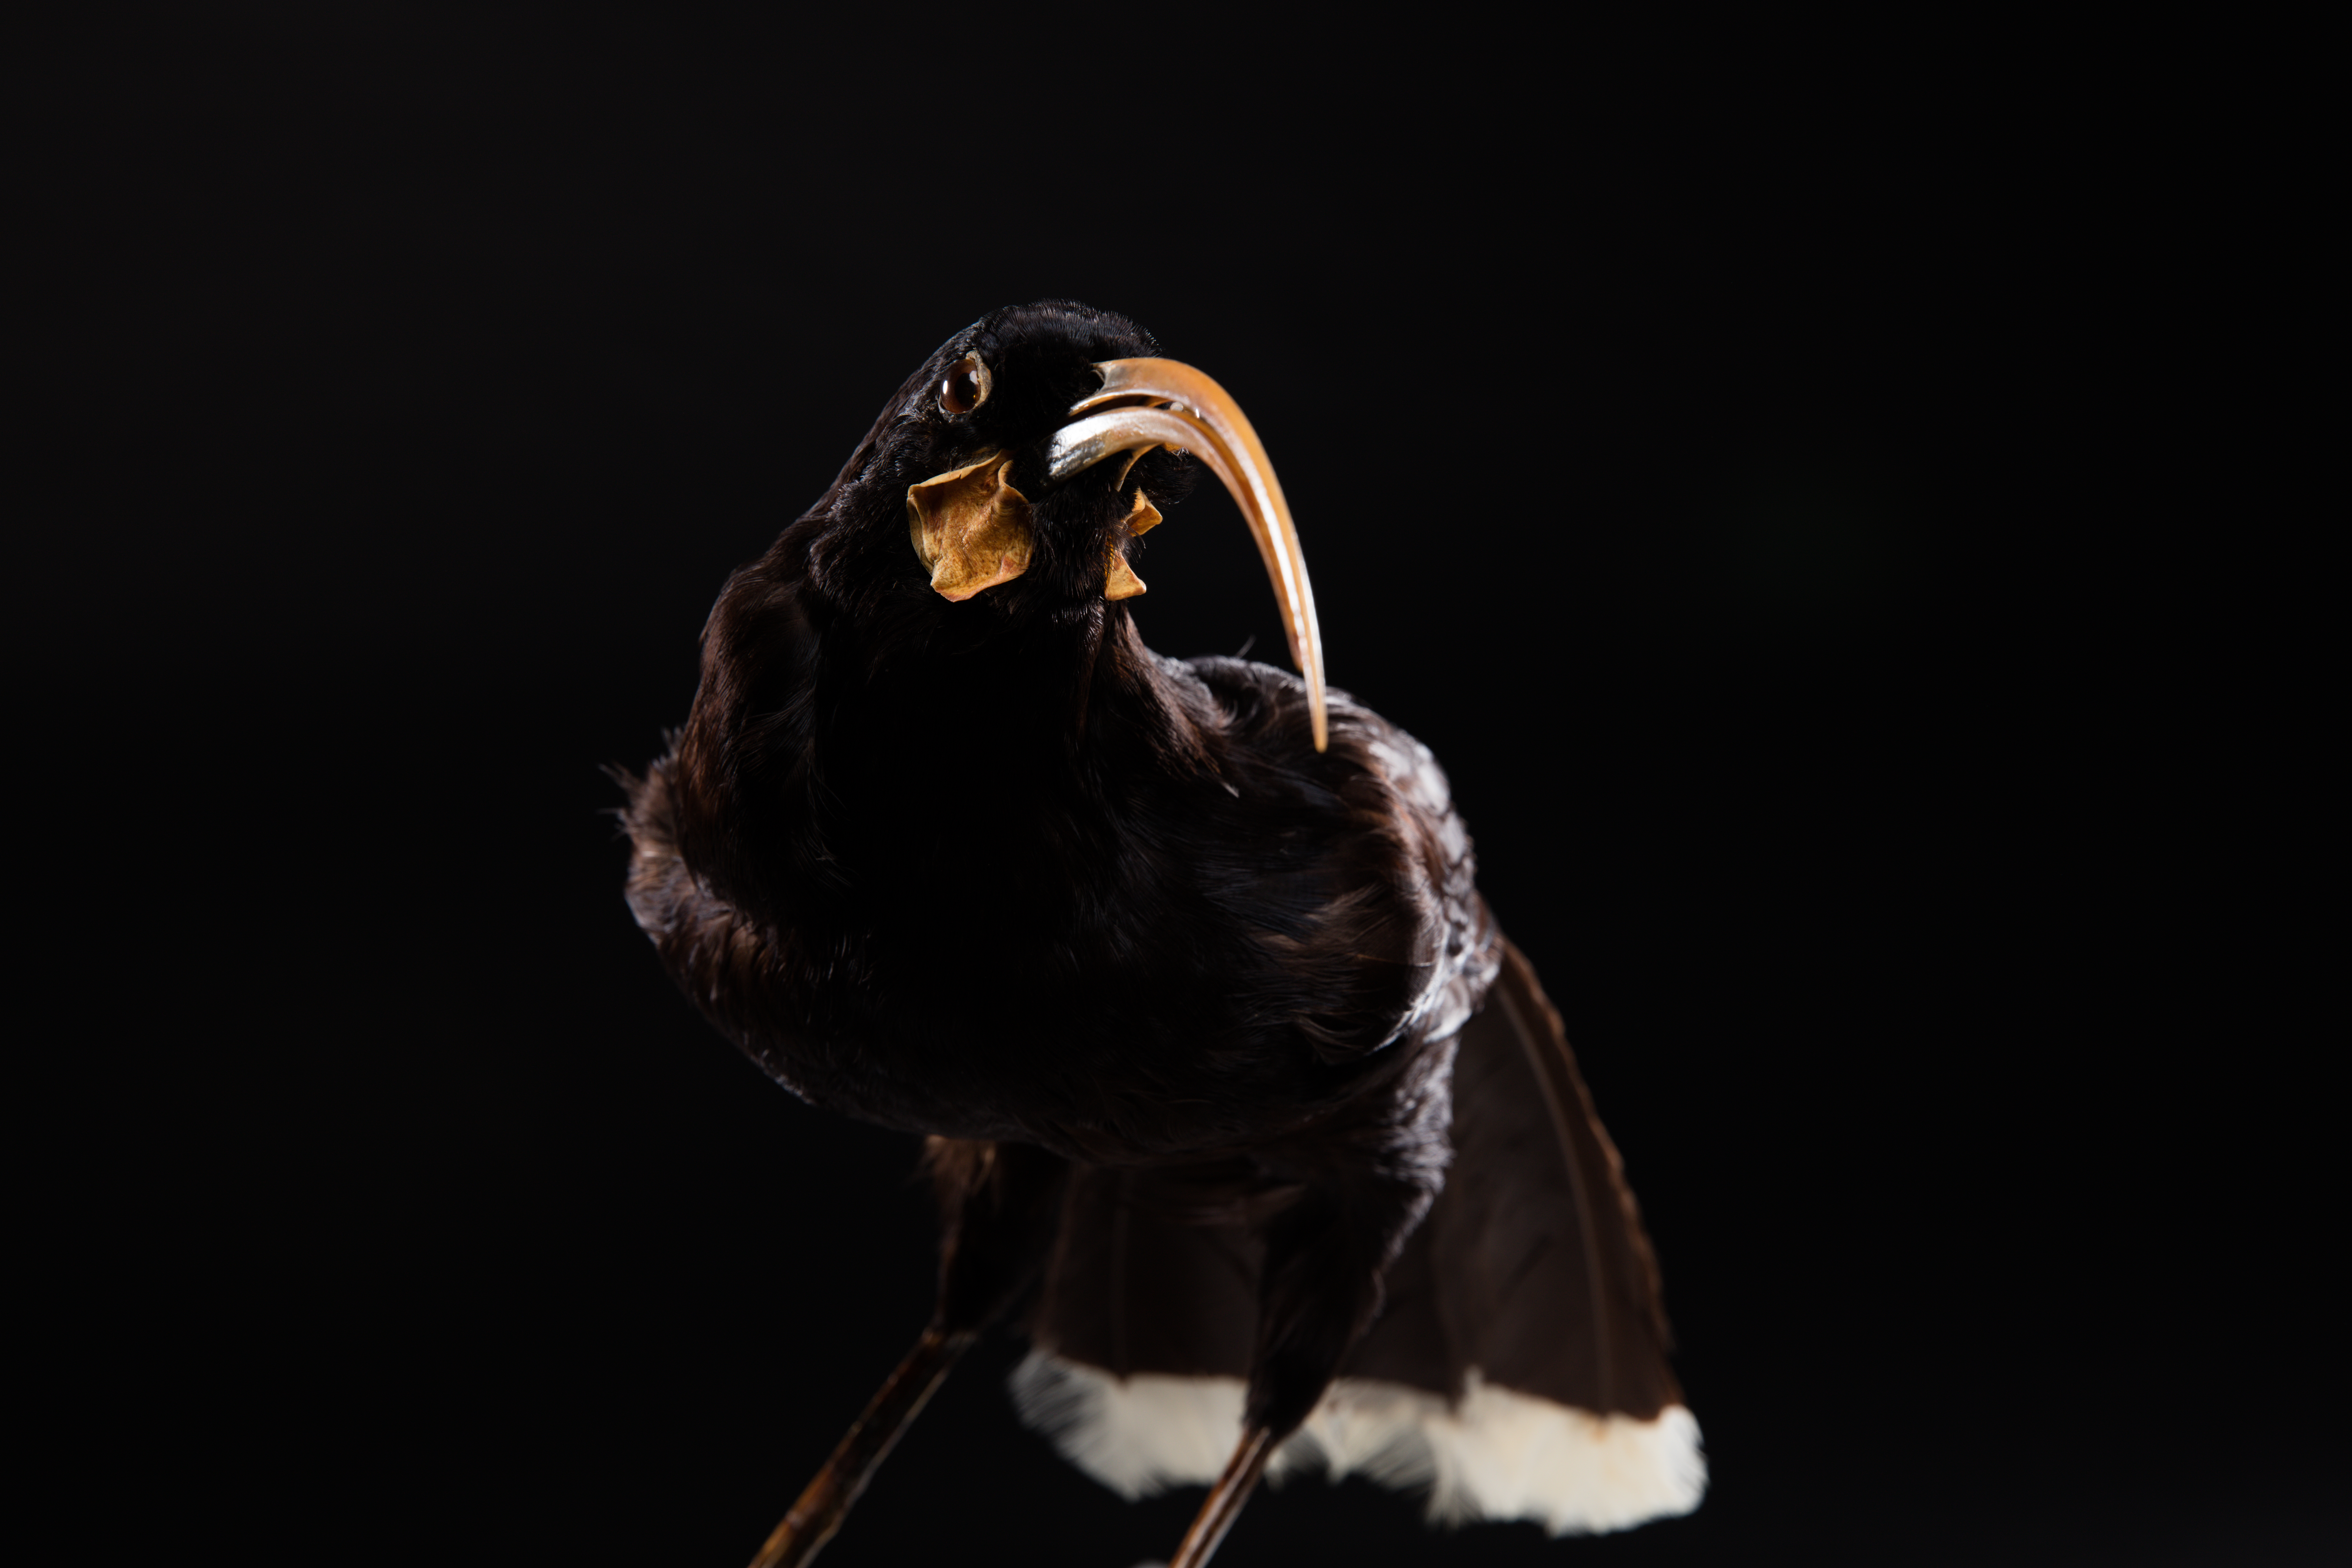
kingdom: Animalia
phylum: Chordata
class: Aves
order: Passeriformes
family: Callaeatidae
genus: Heteralocha
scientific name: Heteralocha acutirostris
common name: Huia
